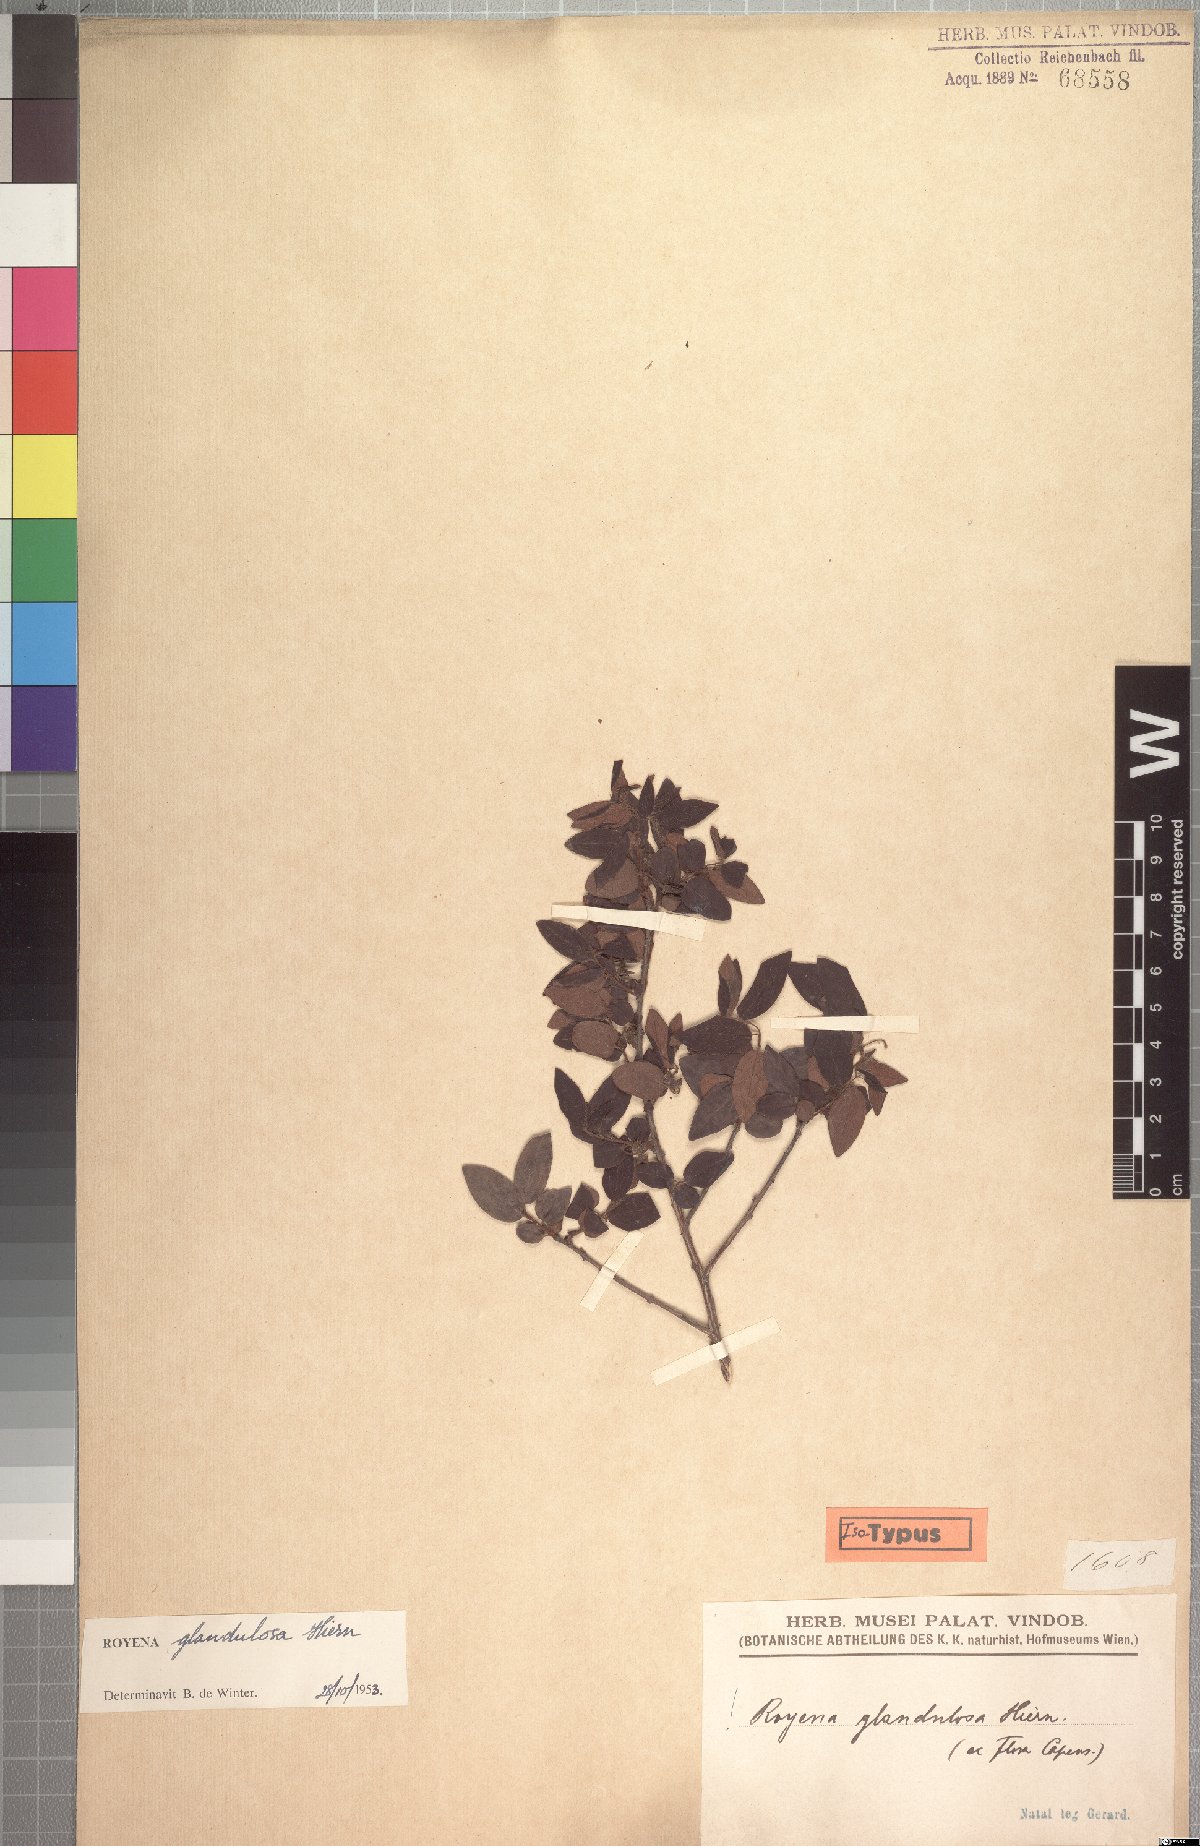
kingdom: Plantae
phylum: Tracheophyta
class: Magnoliopsida
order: Ericales
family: Ebenaceae
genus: Diospyros
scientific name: Diospyros glandulifera
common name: Sticky jackal-berry
